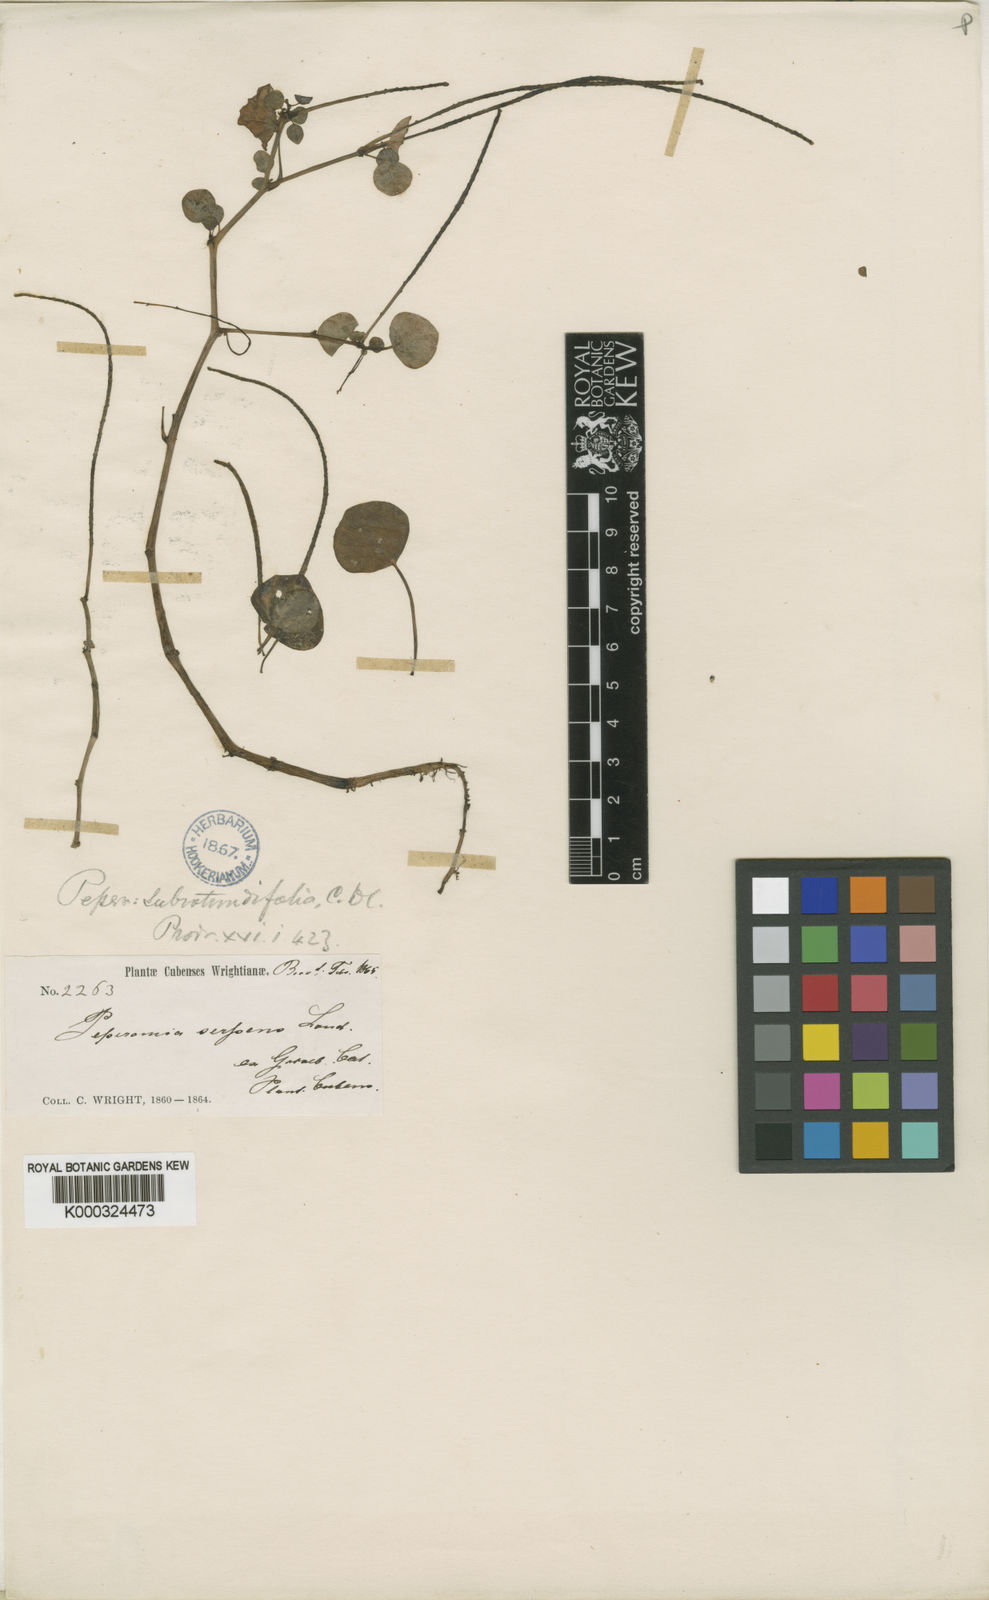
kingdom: Plantae
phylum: Tracheophyta
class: Magnoliopsida
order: Piperales
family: Piperaceae
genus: Peperomia
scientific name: Peperomia subrotundifolia
